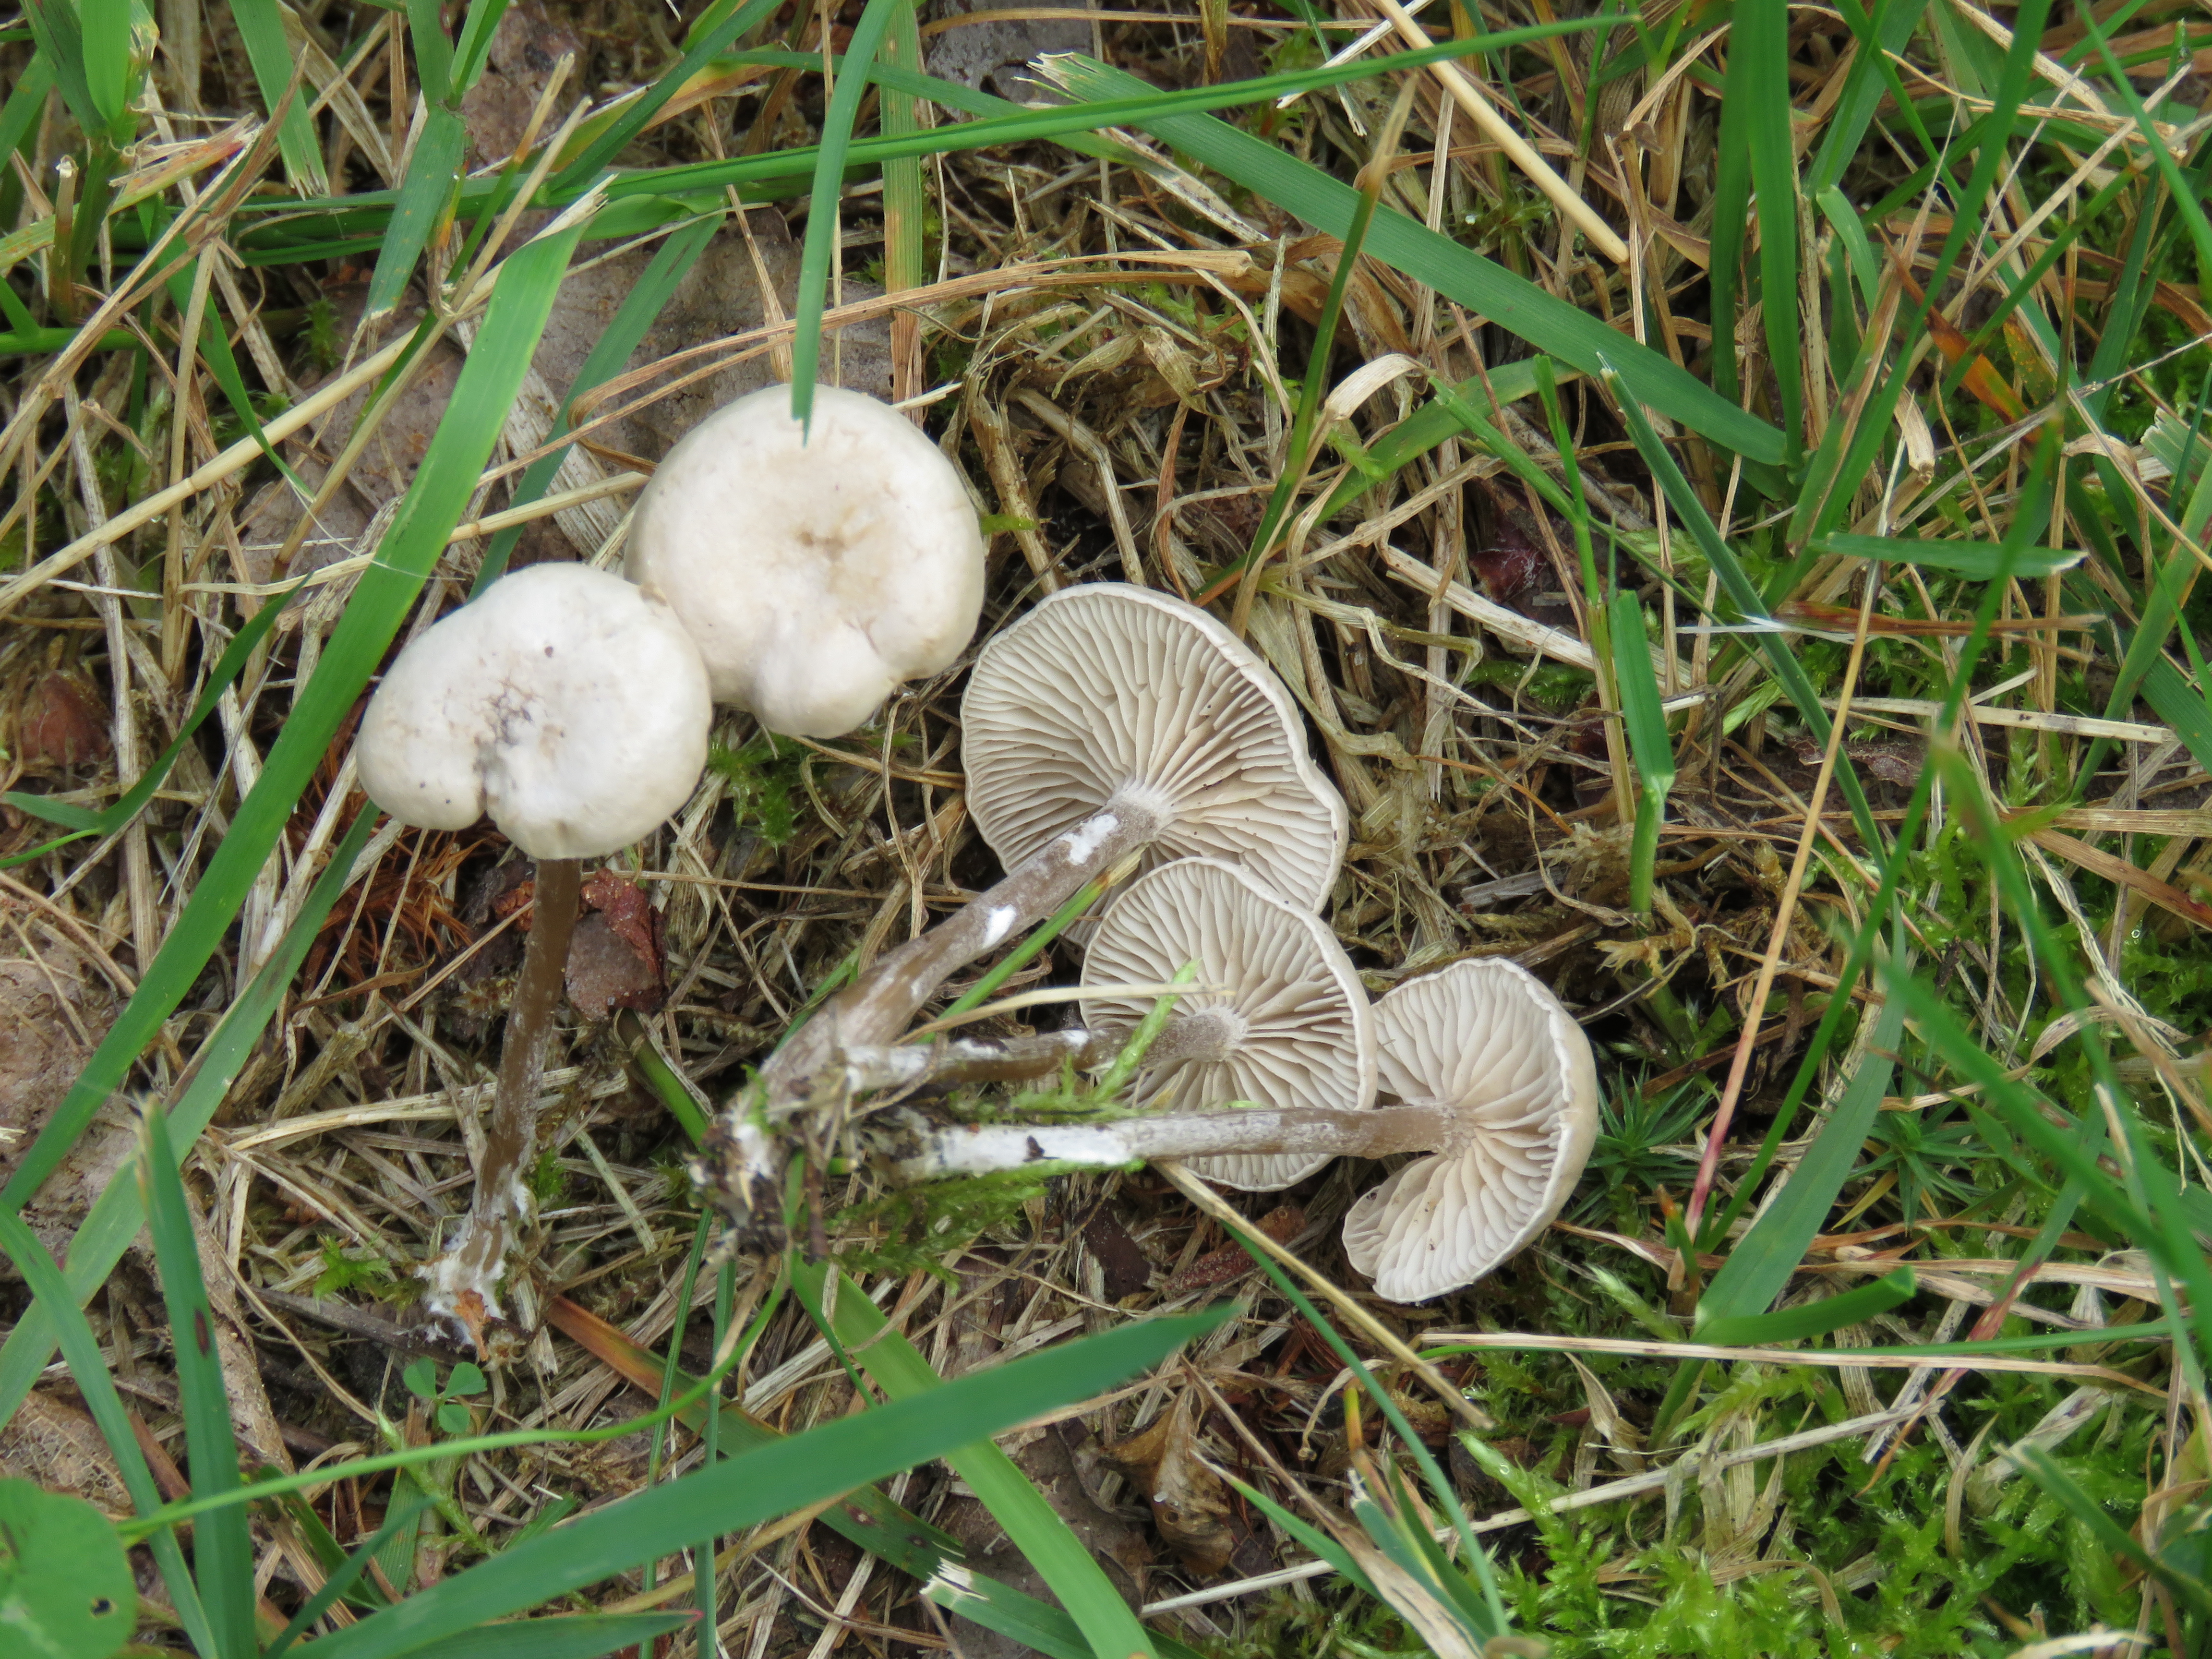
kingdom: Fungi
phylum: Basidiomycota
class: Agaricomycetes
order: Agaricales
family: Entolomataceae
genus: Clitopilopsis
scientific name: Clitopilopsis hirneola
